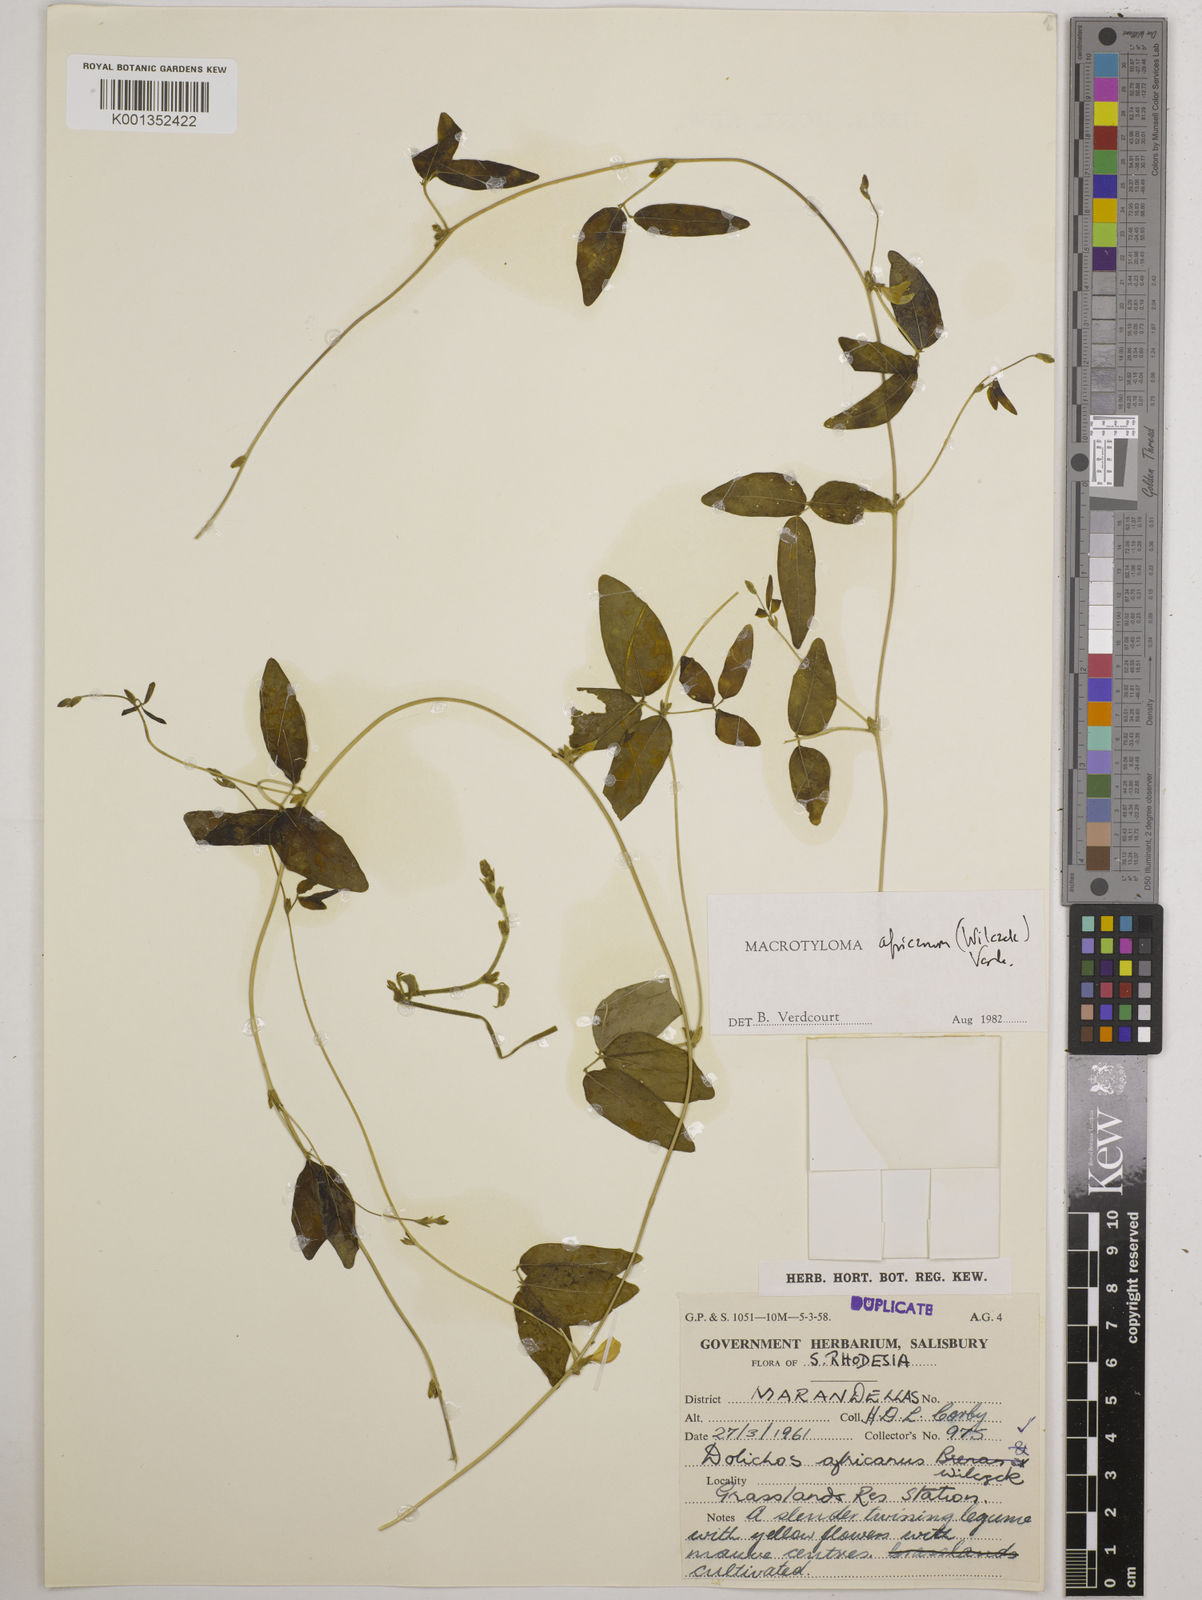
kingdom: Plantae
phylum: Tracheophyta
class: Magnoliopsida
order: Fabales
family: Fabaceae
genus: Macrotyloma
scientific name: Macrotyloma africanum
